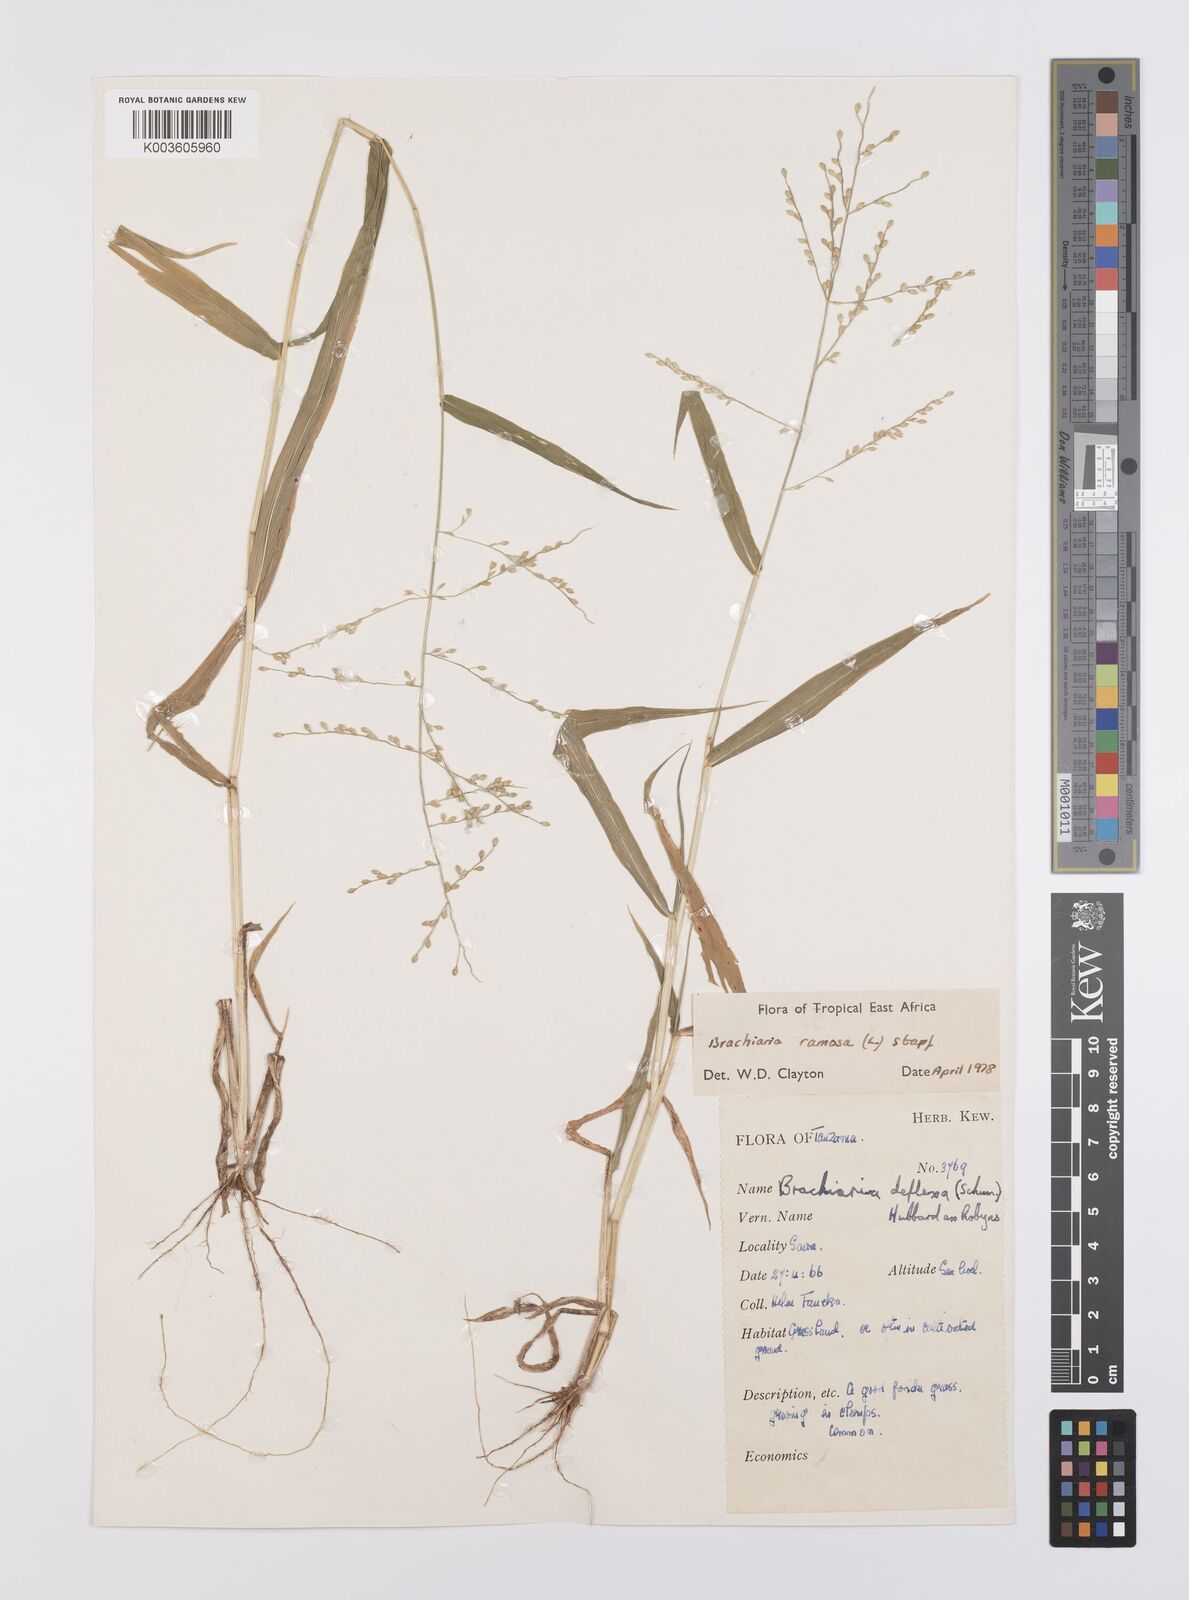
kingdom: Plantae
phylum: Tracheophyta
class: Liliopsida
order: Poales
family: Poaceae
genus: Urochloa
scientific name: Urochloa ramosa
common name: Browntop millet
